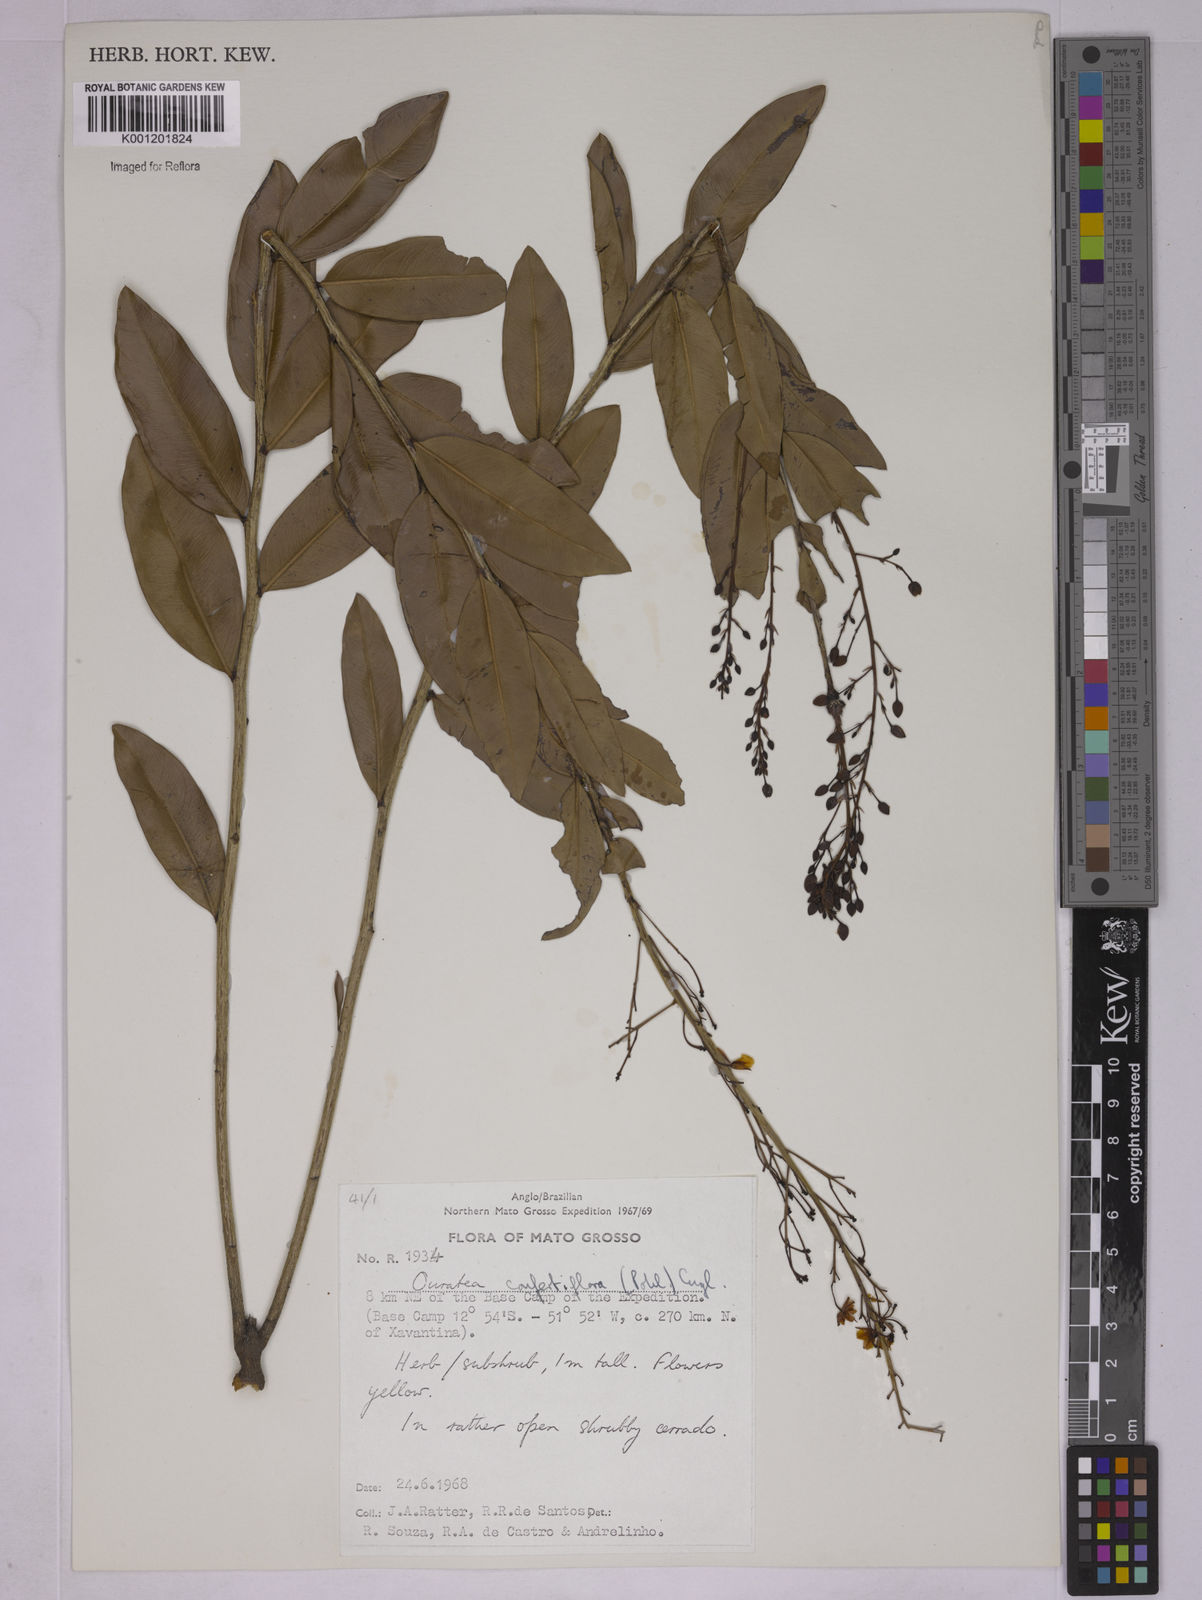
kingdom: Plantae
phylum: Tracheophyta
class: Magnoliopsida
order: Malpighiales
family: Ochnaceae
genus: Ouratea
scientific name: Ouratea confertiflora
